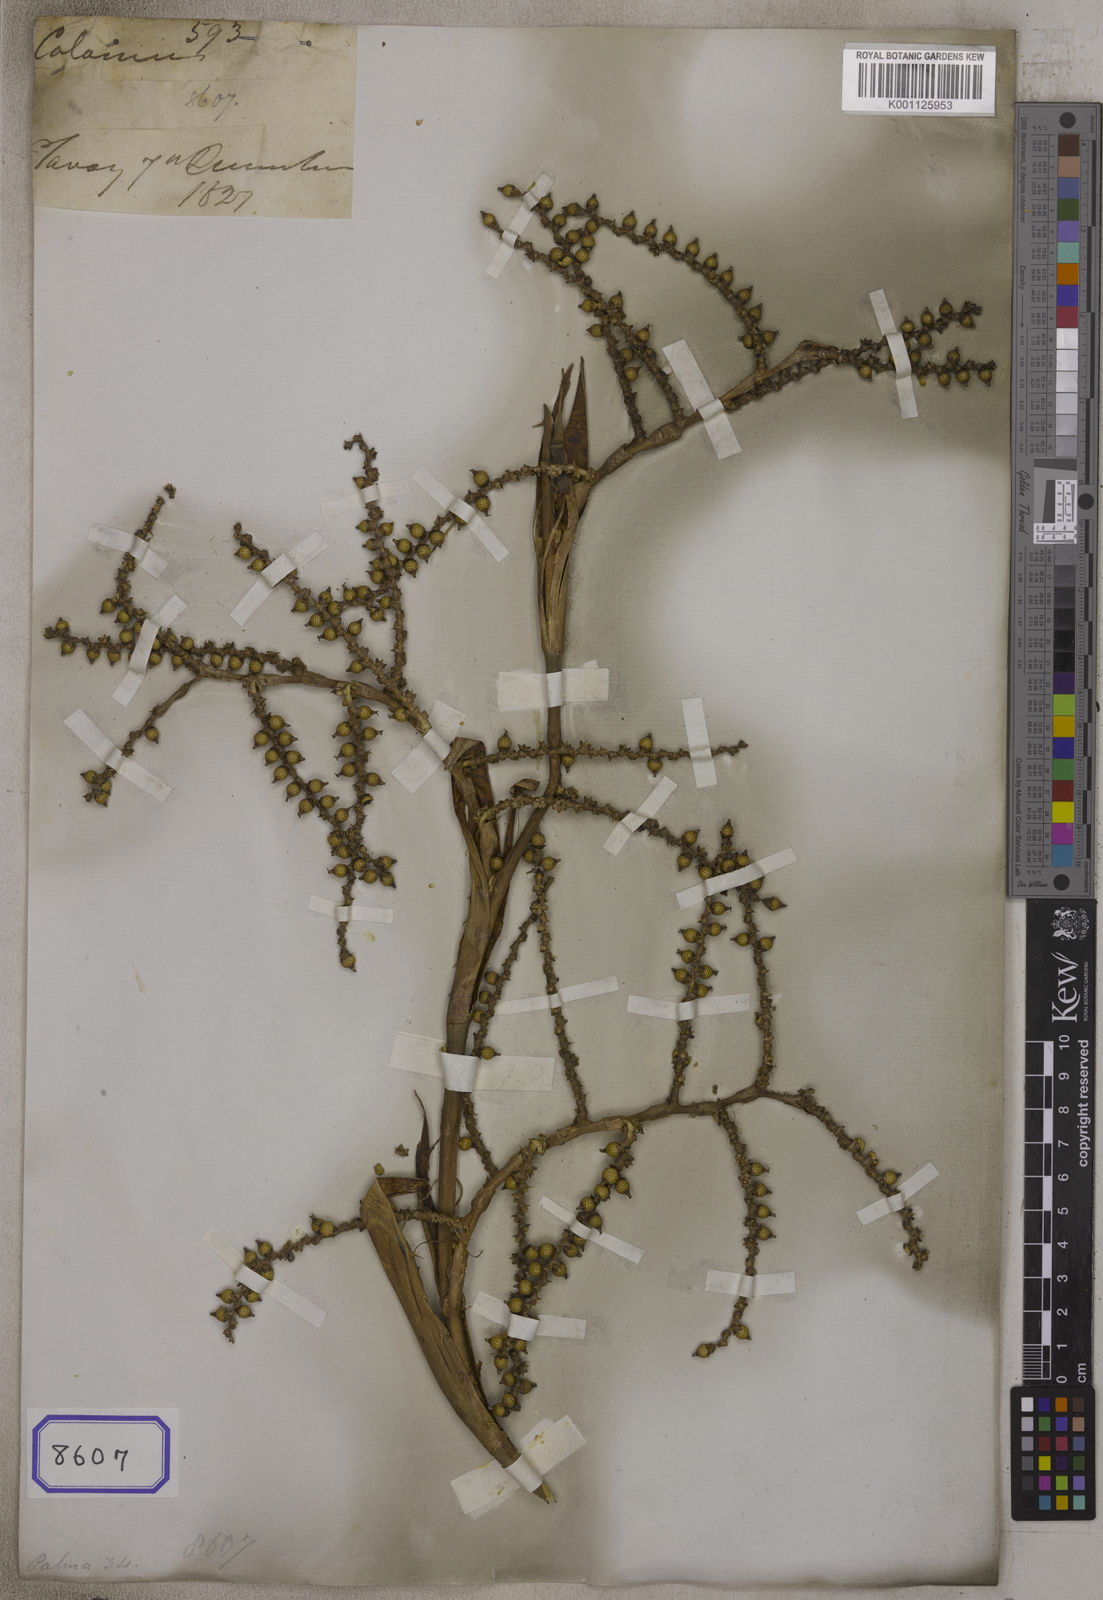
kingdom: Plantae
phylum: Tracheophyta
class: Liliopsida
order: Arecales
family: Arecaceae
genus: Calamus
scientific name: Calamus concinnus
